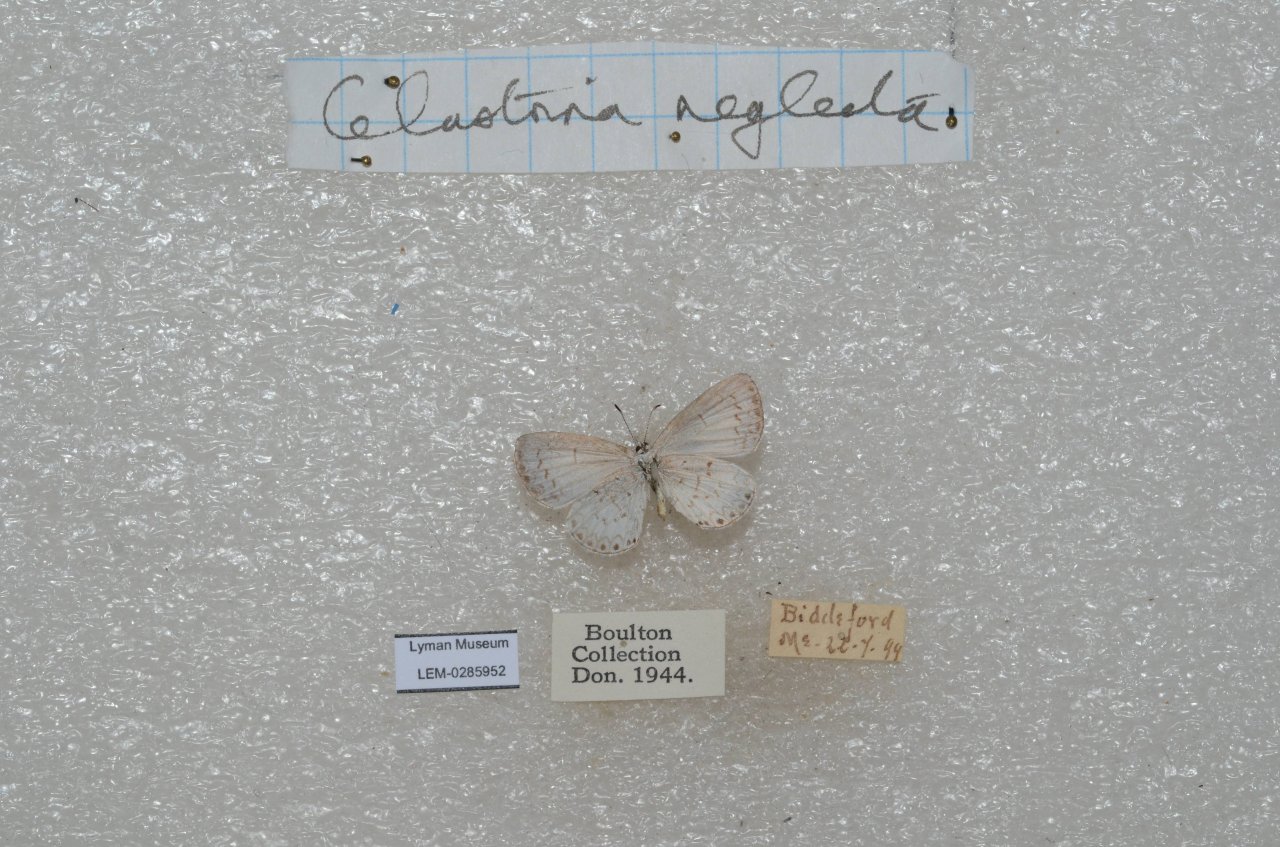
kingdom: Animalia
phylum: Arthropoda
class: Insecta
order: Lepidoptera
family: Hesperiidae
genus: Polites
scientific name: Polites coras
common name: Peck's Skipper
